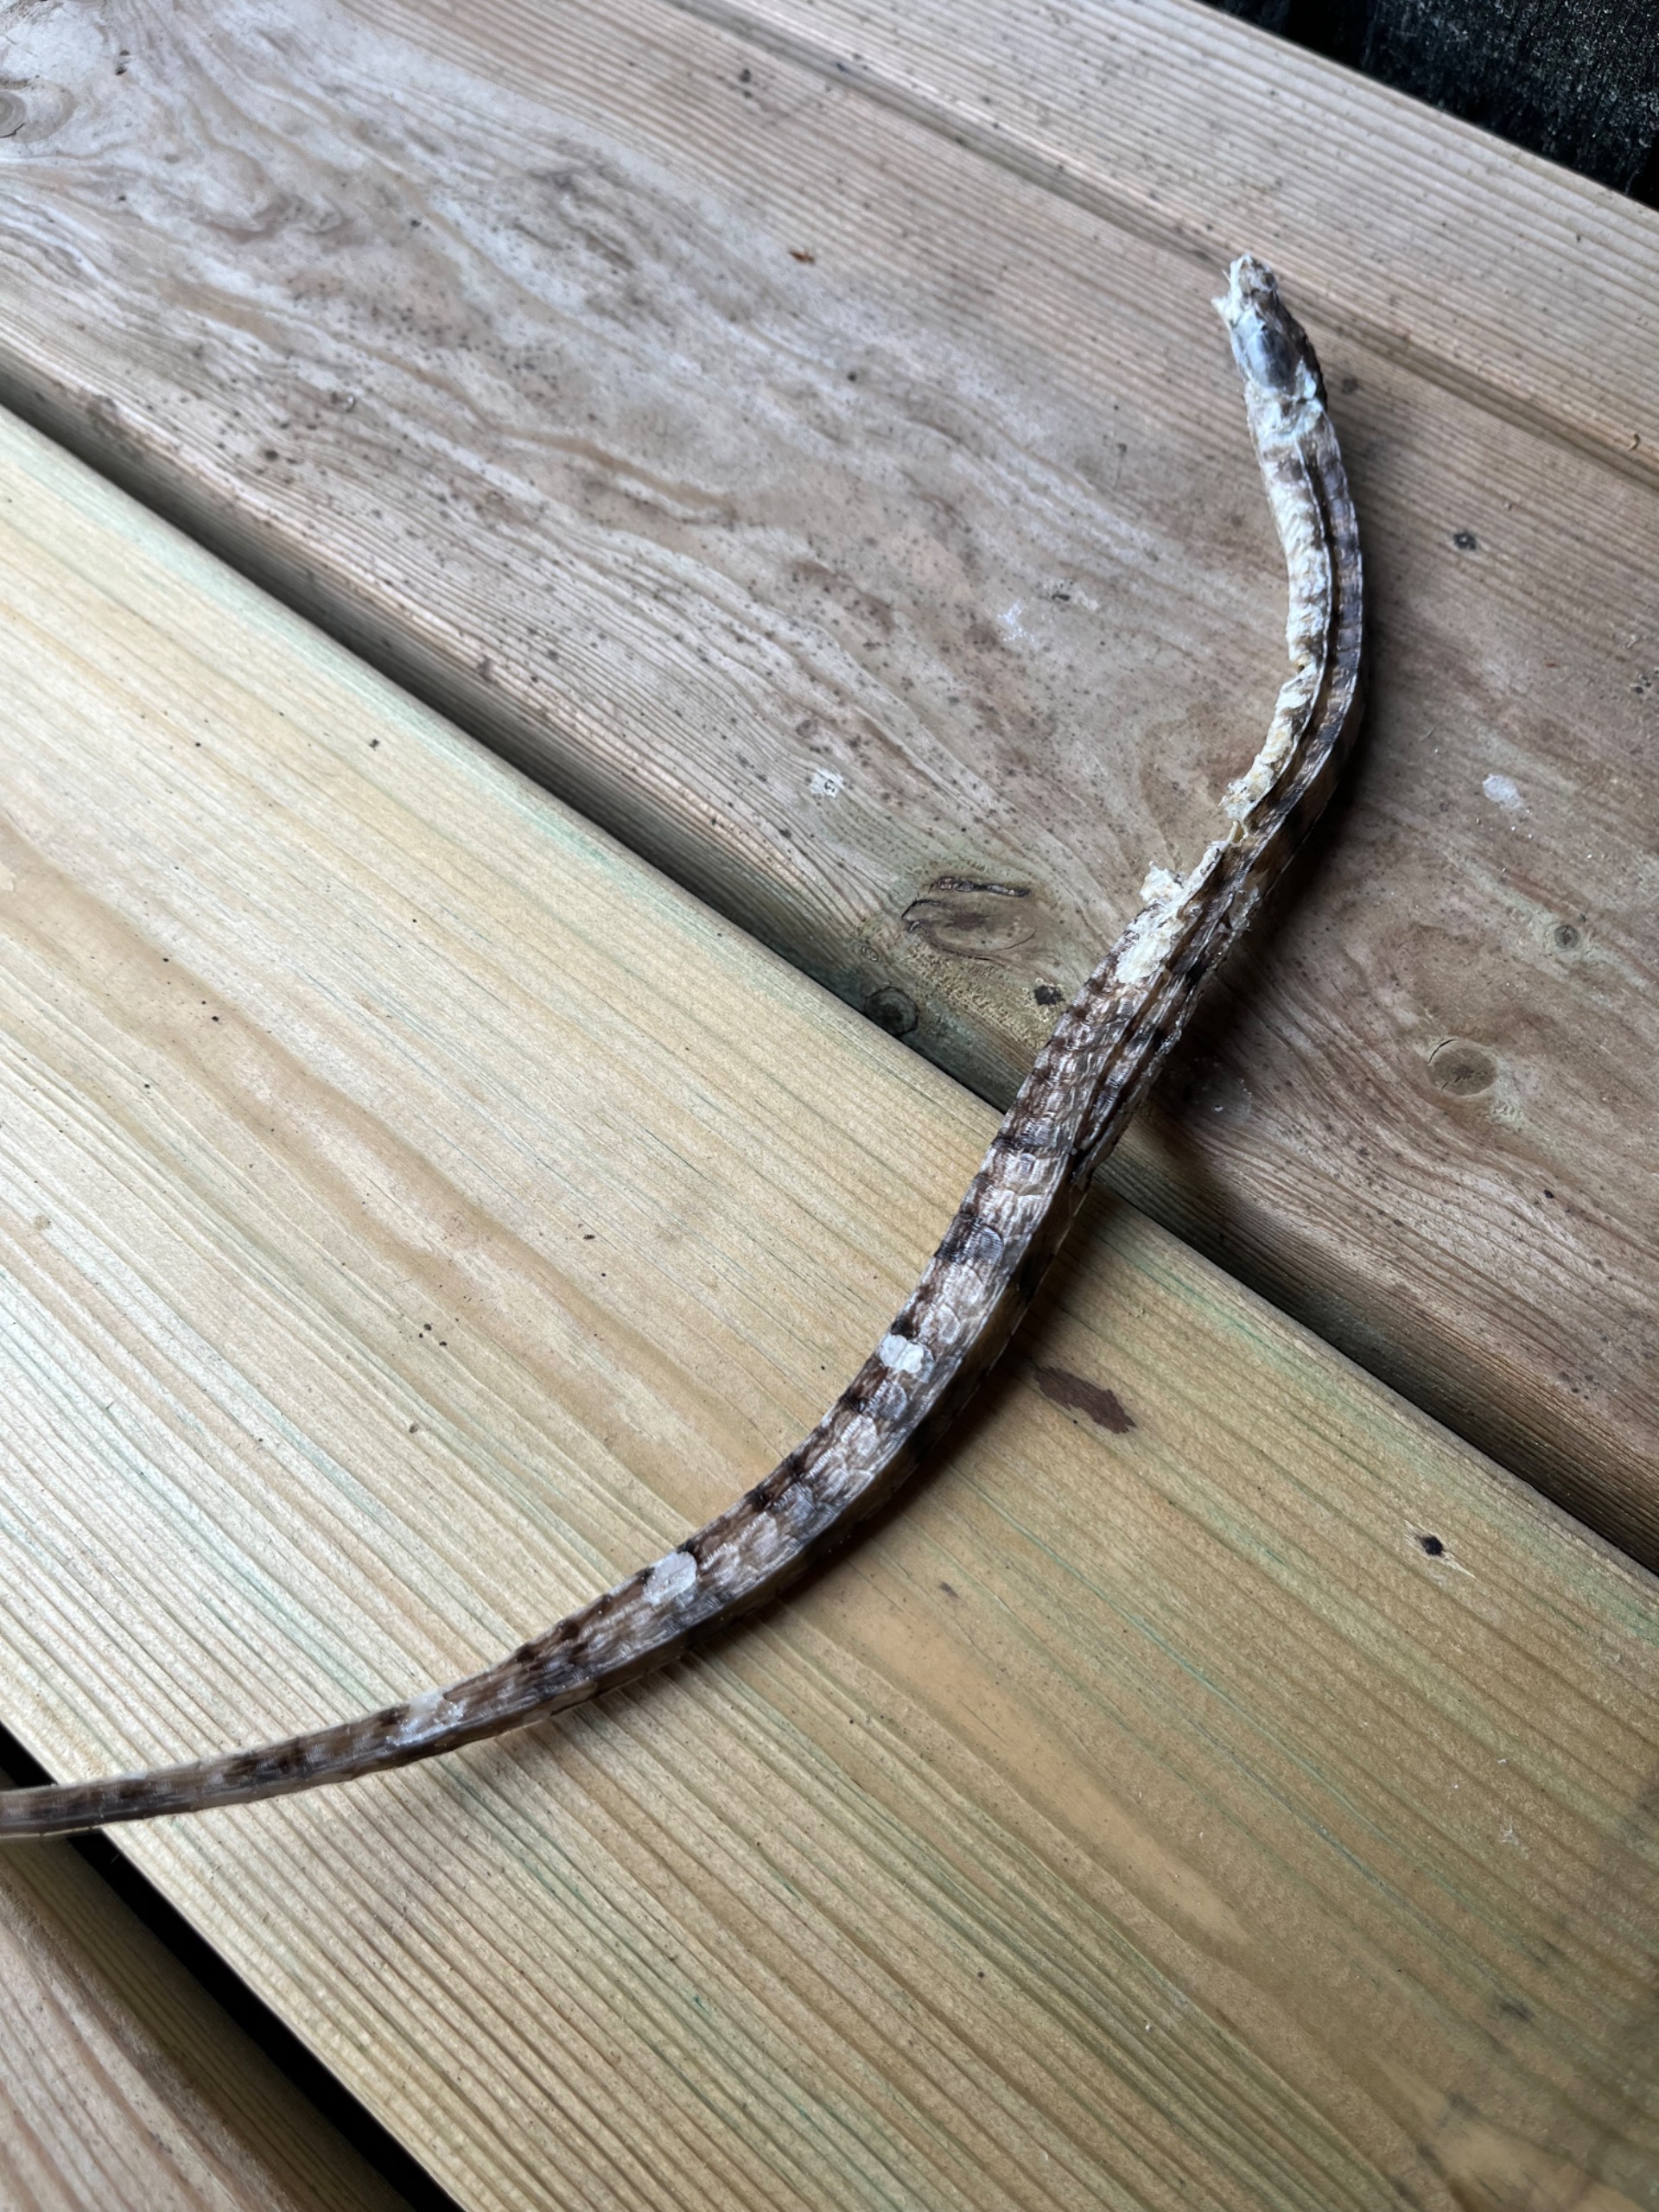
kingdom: Animalia
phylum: Chordata
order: Syngnathiformes
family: Syngnathidae
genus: Syngnathus
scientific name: Syngnathus acus
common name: Stor tangnål
